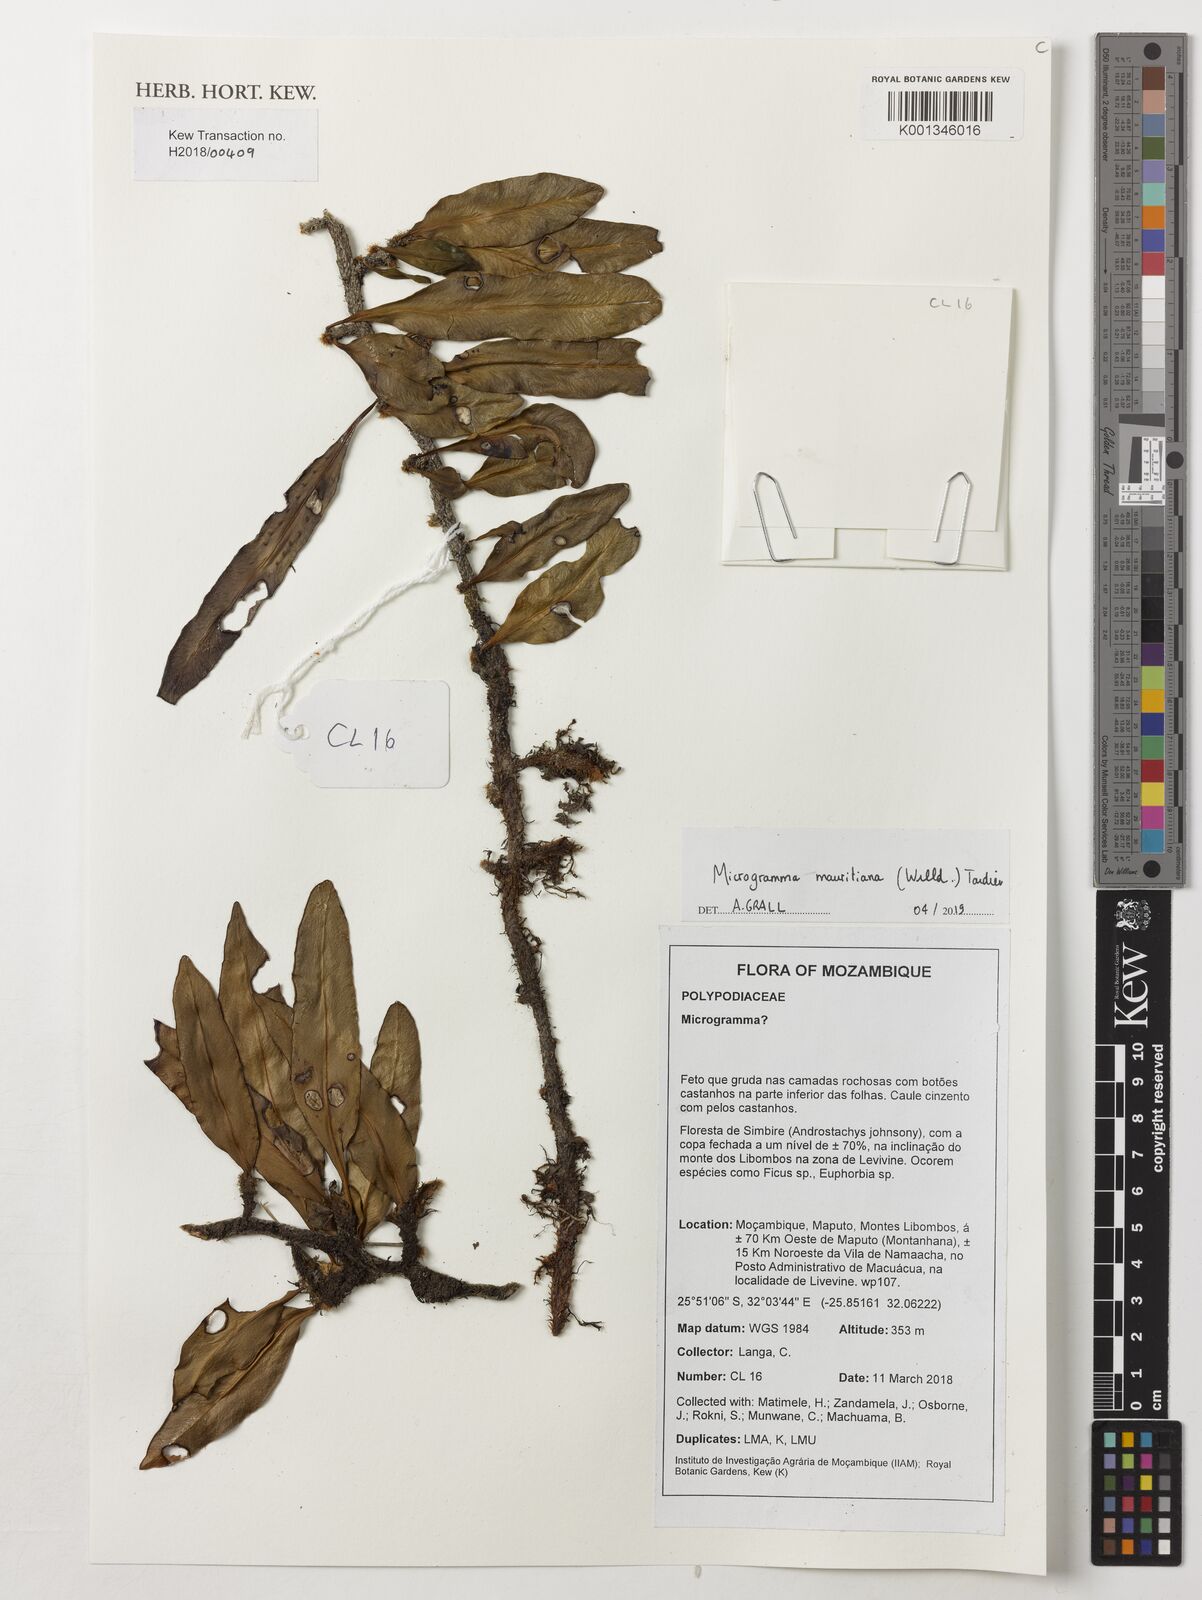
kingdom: Plantae
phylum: Tracheophyta
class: Polypodiopsida
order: Polypodiales
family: Polypodiaceae
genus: Microgramma
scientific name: Microgramma mauritiana
